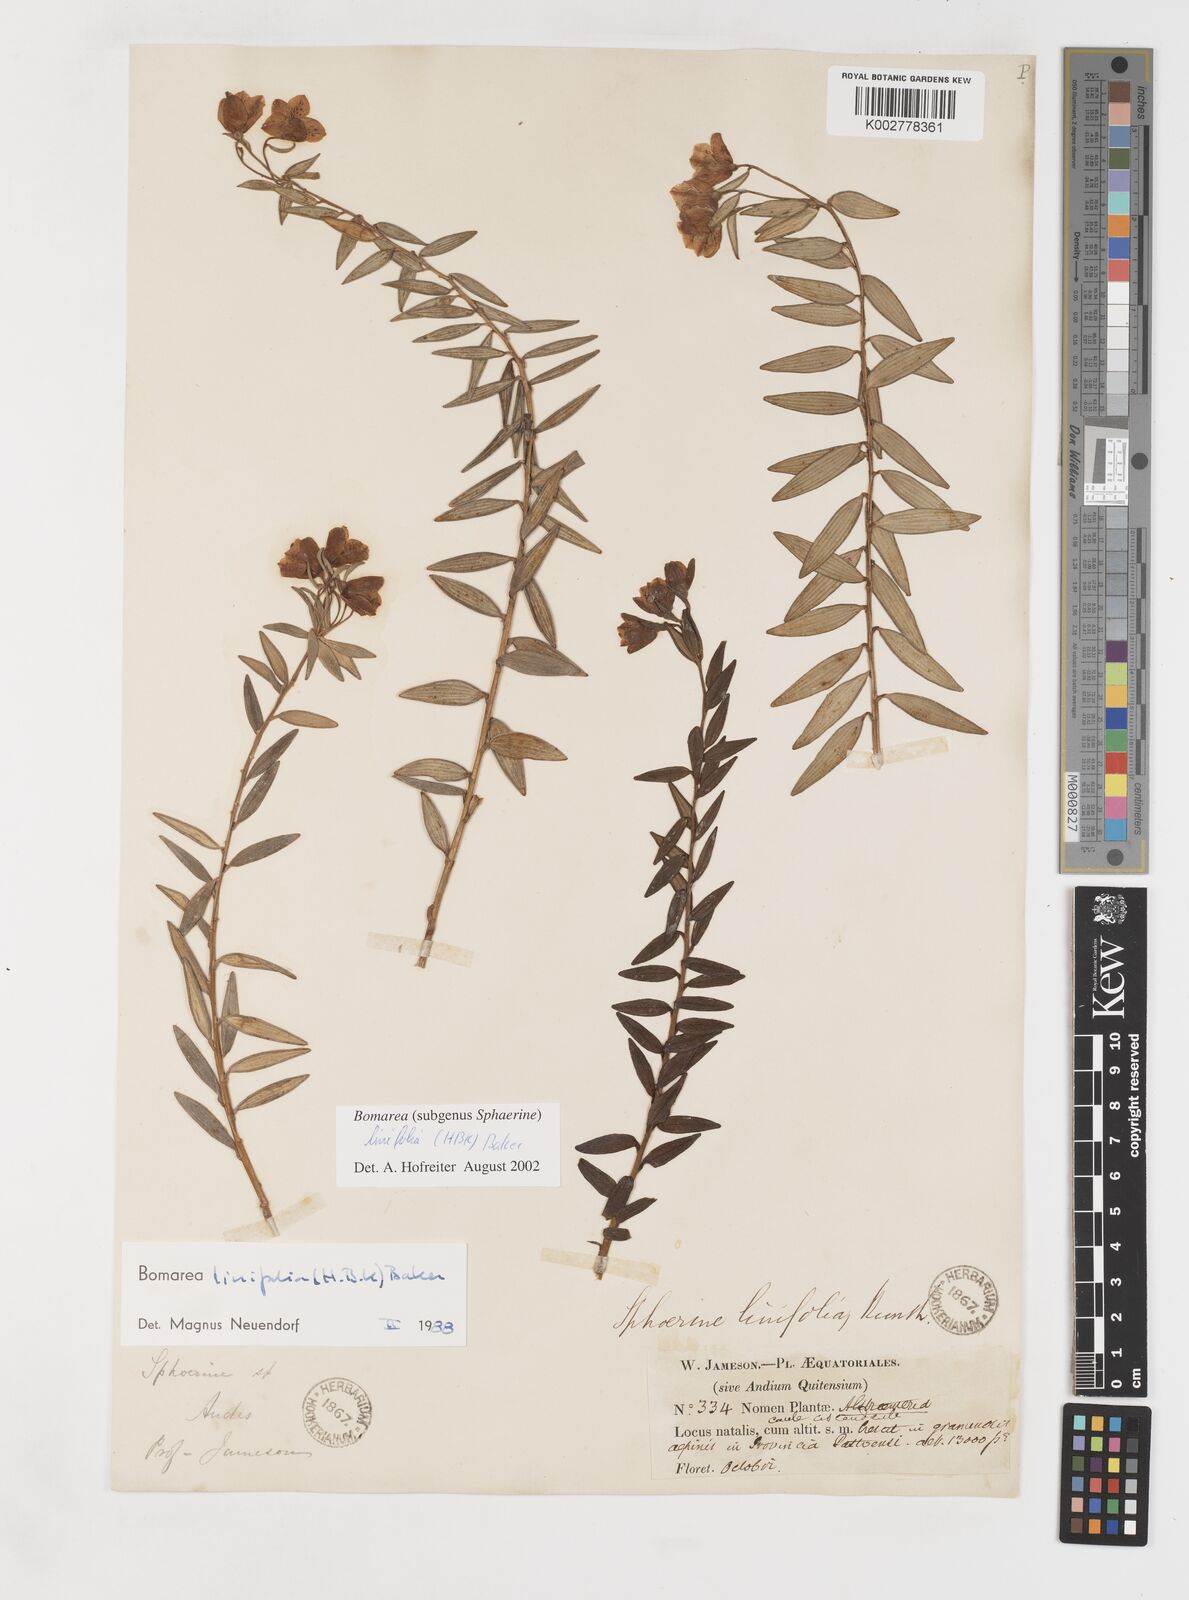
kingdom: Plantae
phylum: Tracheophyta
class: Liliopsida
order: Liliales
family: Alstroemeriaceae
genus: Bomarea
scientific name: Bomarea linifolia
